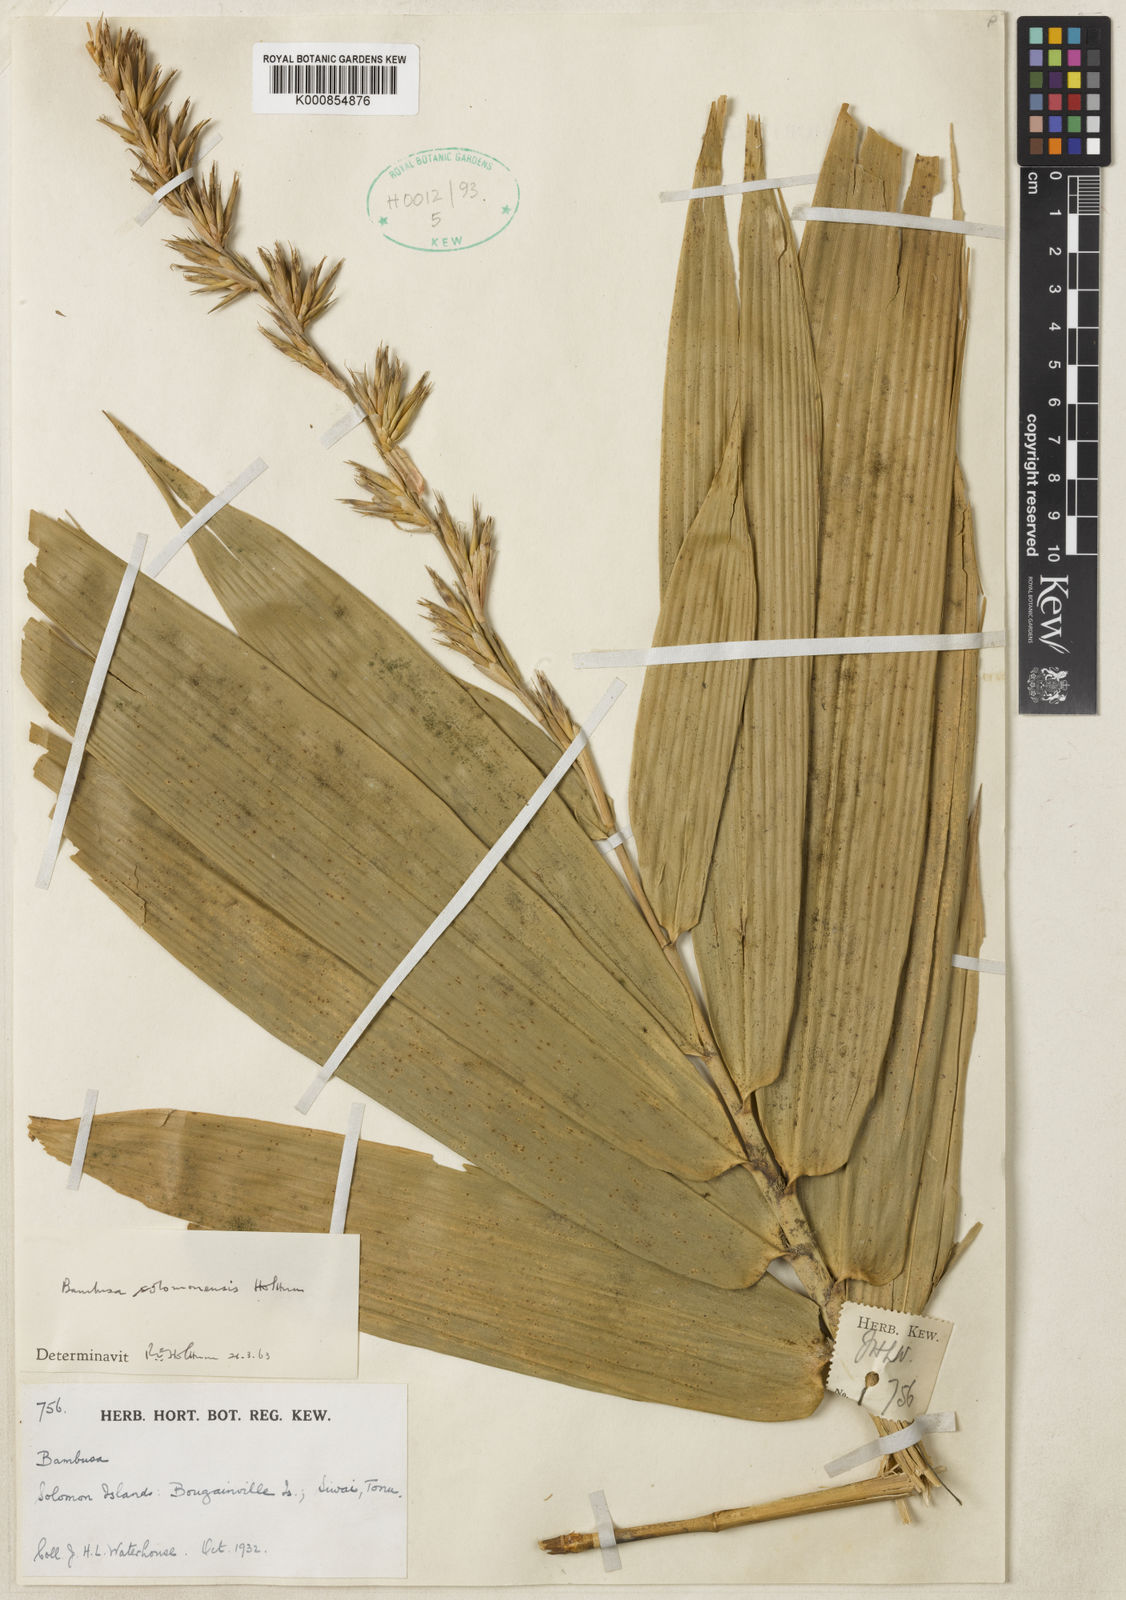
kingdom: Plantae
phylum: Tracheophyta
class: Liliopsida
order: Poales
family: Poaceae
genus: Bambusa
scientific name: Bambusa solomonensis
